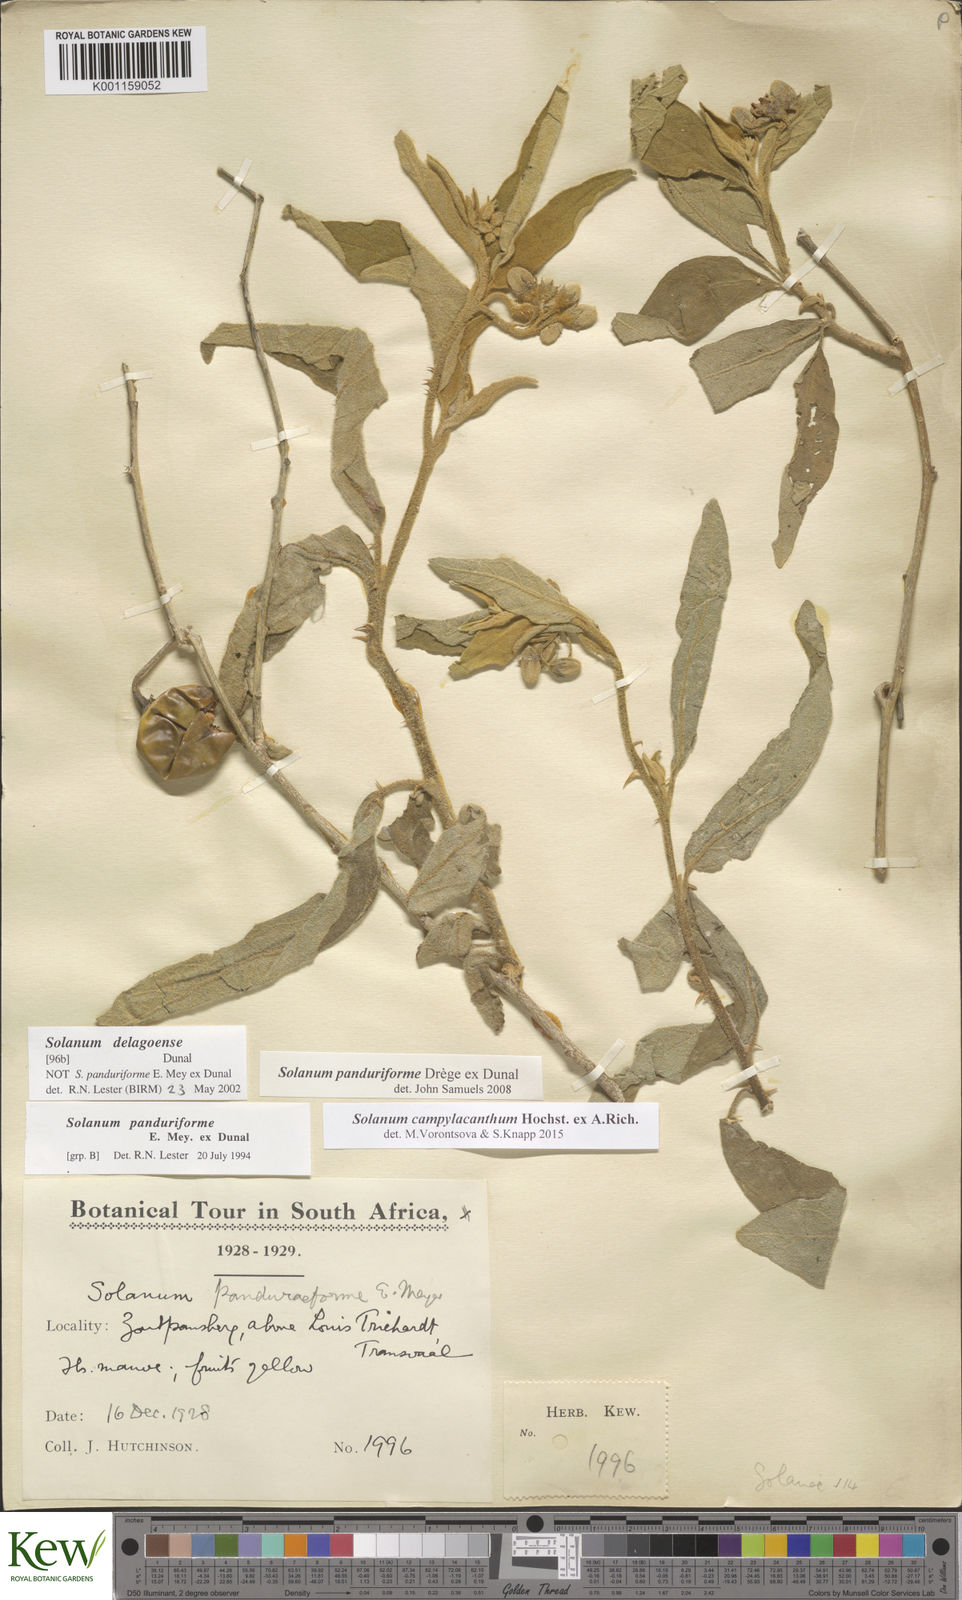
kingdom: Plantae
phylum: Tracheophyta
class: Magnoliopsida
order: Solanales
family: Solanaceae
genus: Solanum
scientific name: Solanum campylacanthum
